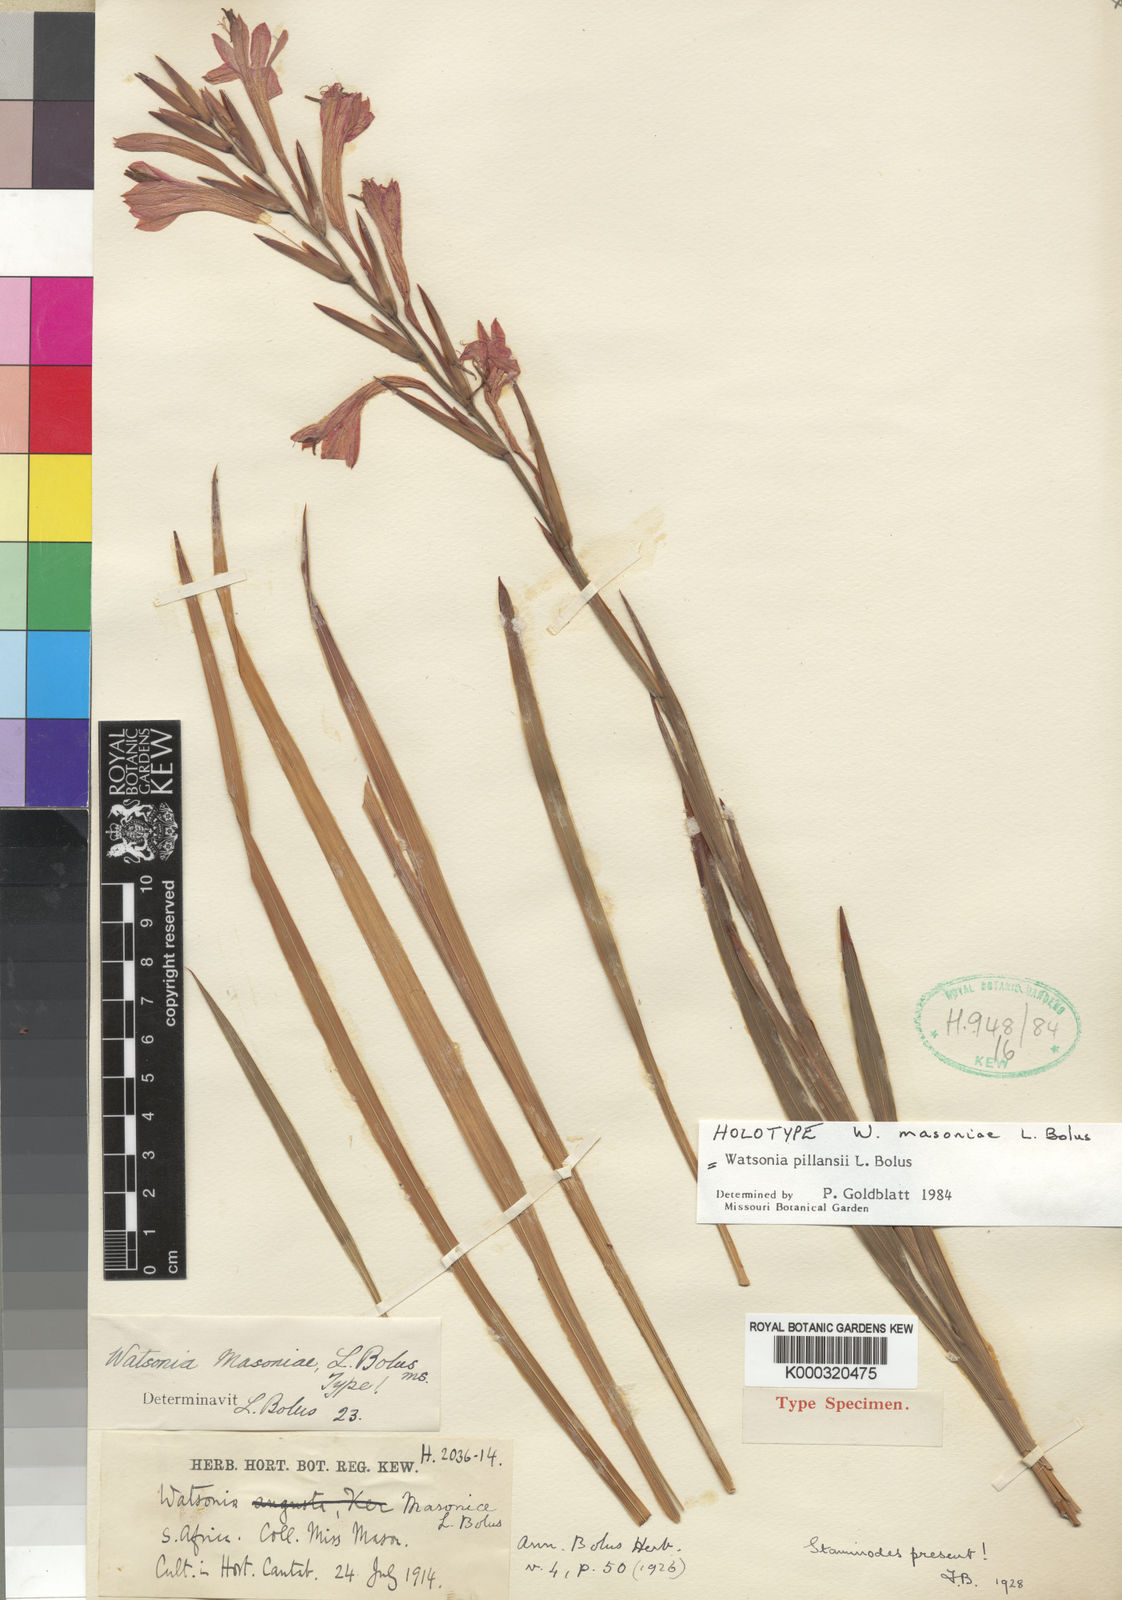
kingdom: Plantae
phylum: Tracheophyta
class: Liliopsida
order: Asparagales
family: Iridaceae
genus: Watsonia
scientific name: Watsonia pillansii
